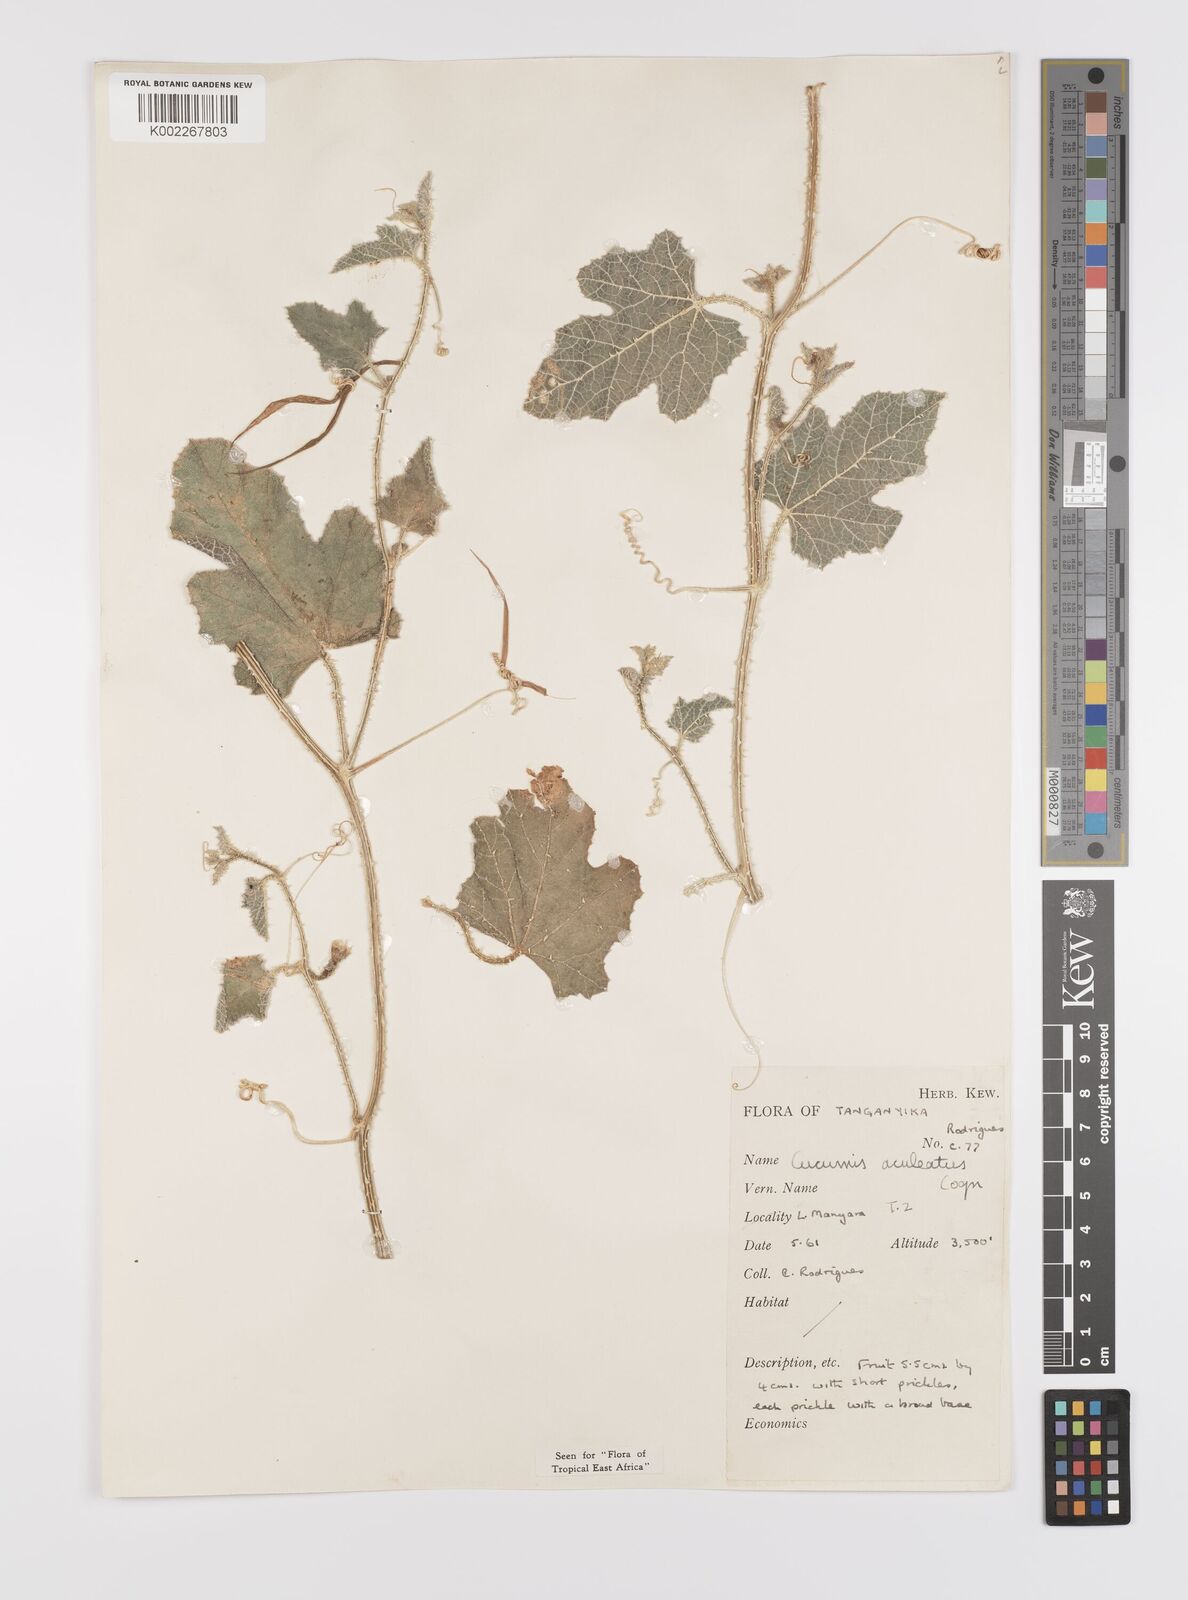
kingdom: Plantae
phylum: Tracheophyta
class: Magnoliopsida
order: Cucurbitales
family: Cucurbitaceae
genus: Cucumis
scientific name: Cucumis aculeatus
